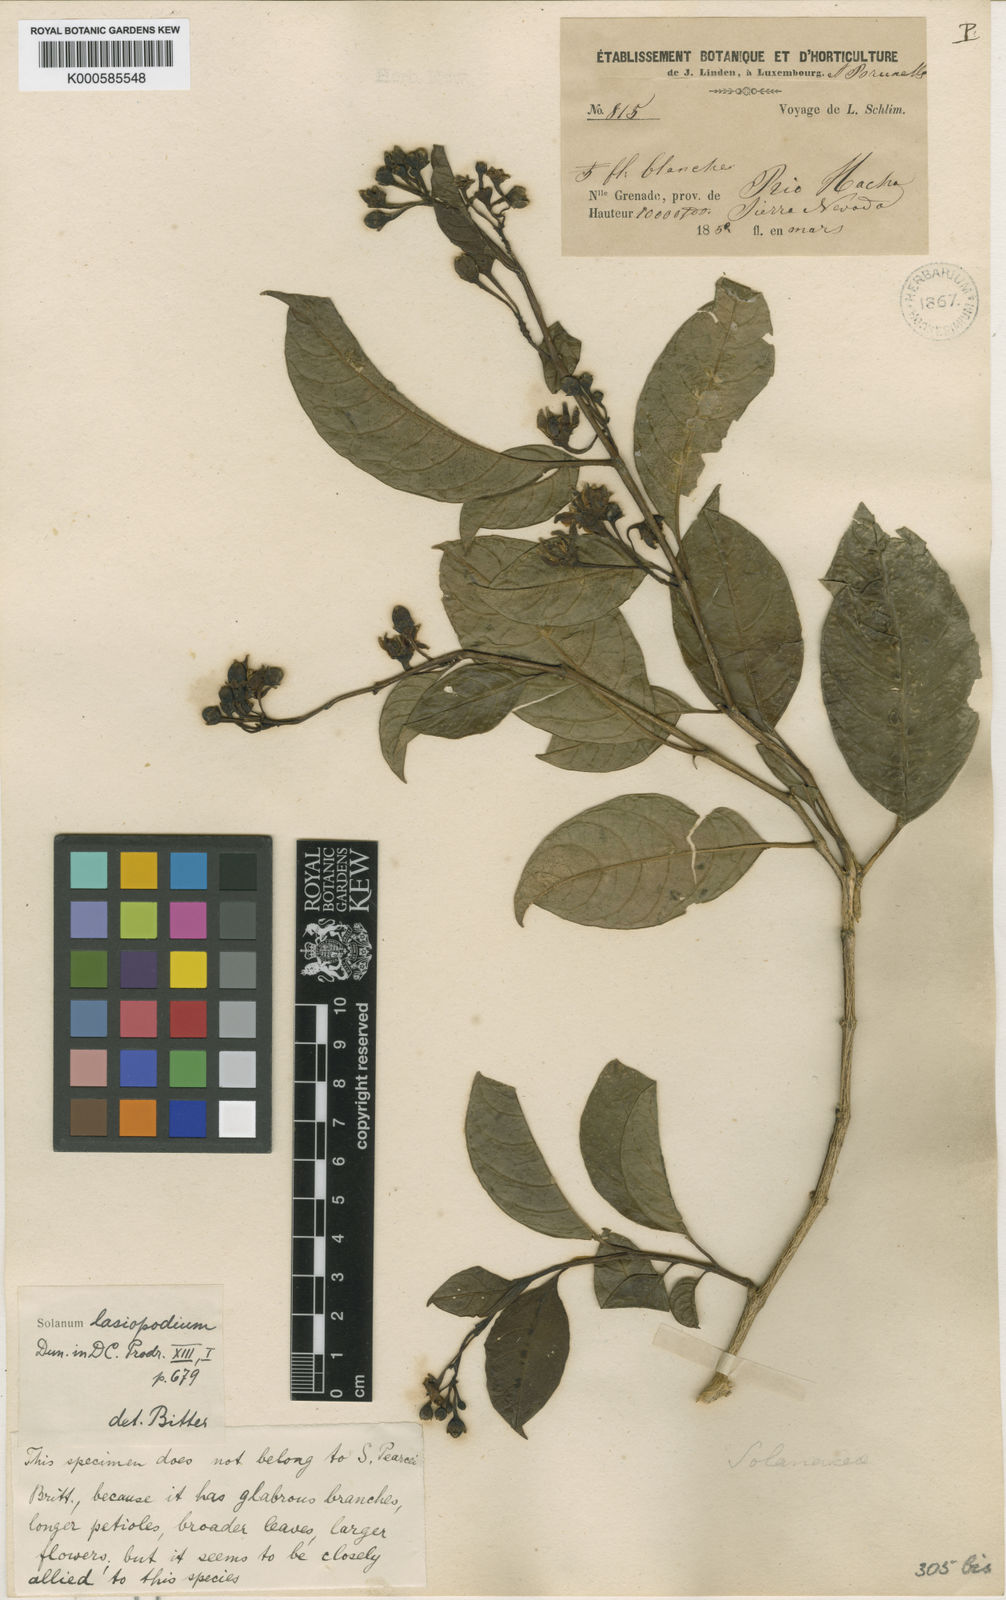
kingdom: Plantae
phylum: Tracheophyta
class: Magnoliopsida
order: Solanales
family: Solanaceae
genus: Solanum
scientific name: Solanum lasiopodium
